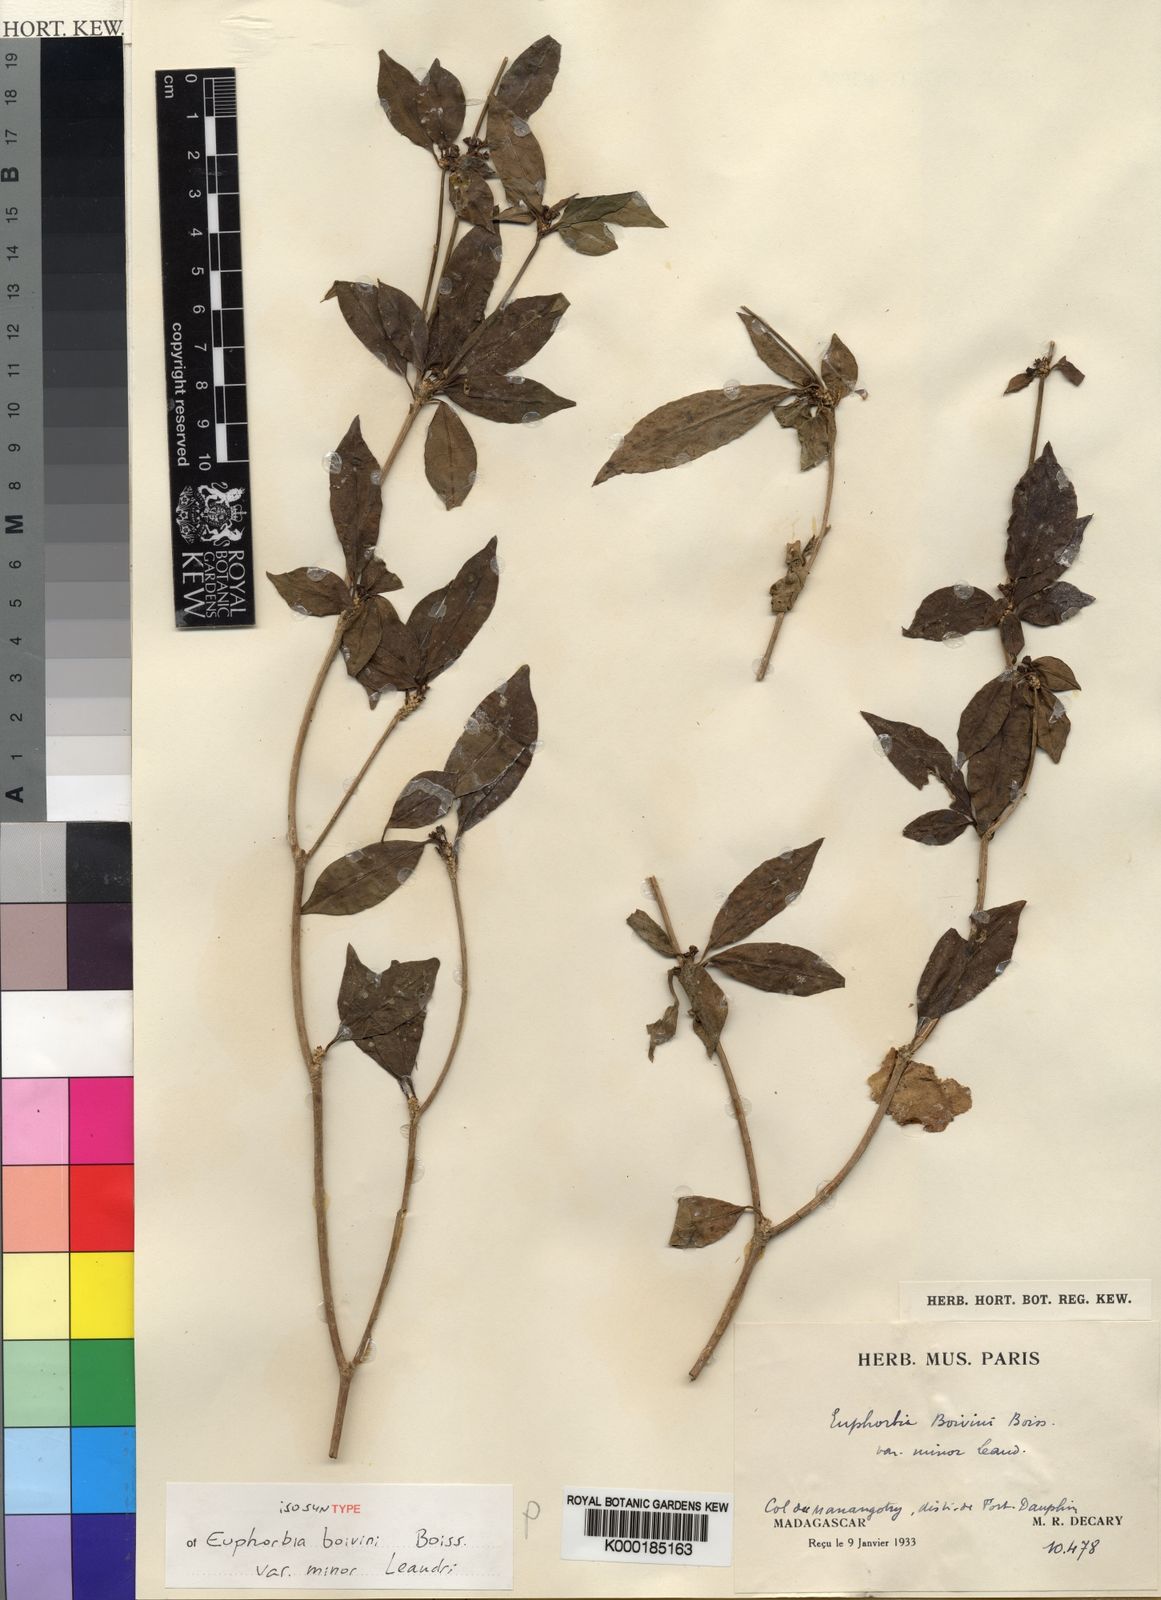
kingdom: Plantae
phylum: Tracheophyta
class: Magnoliopsida
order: Malpighiales
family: Euphorbiaceae
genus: Euphorbia
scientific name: Euphorbia boivinii
